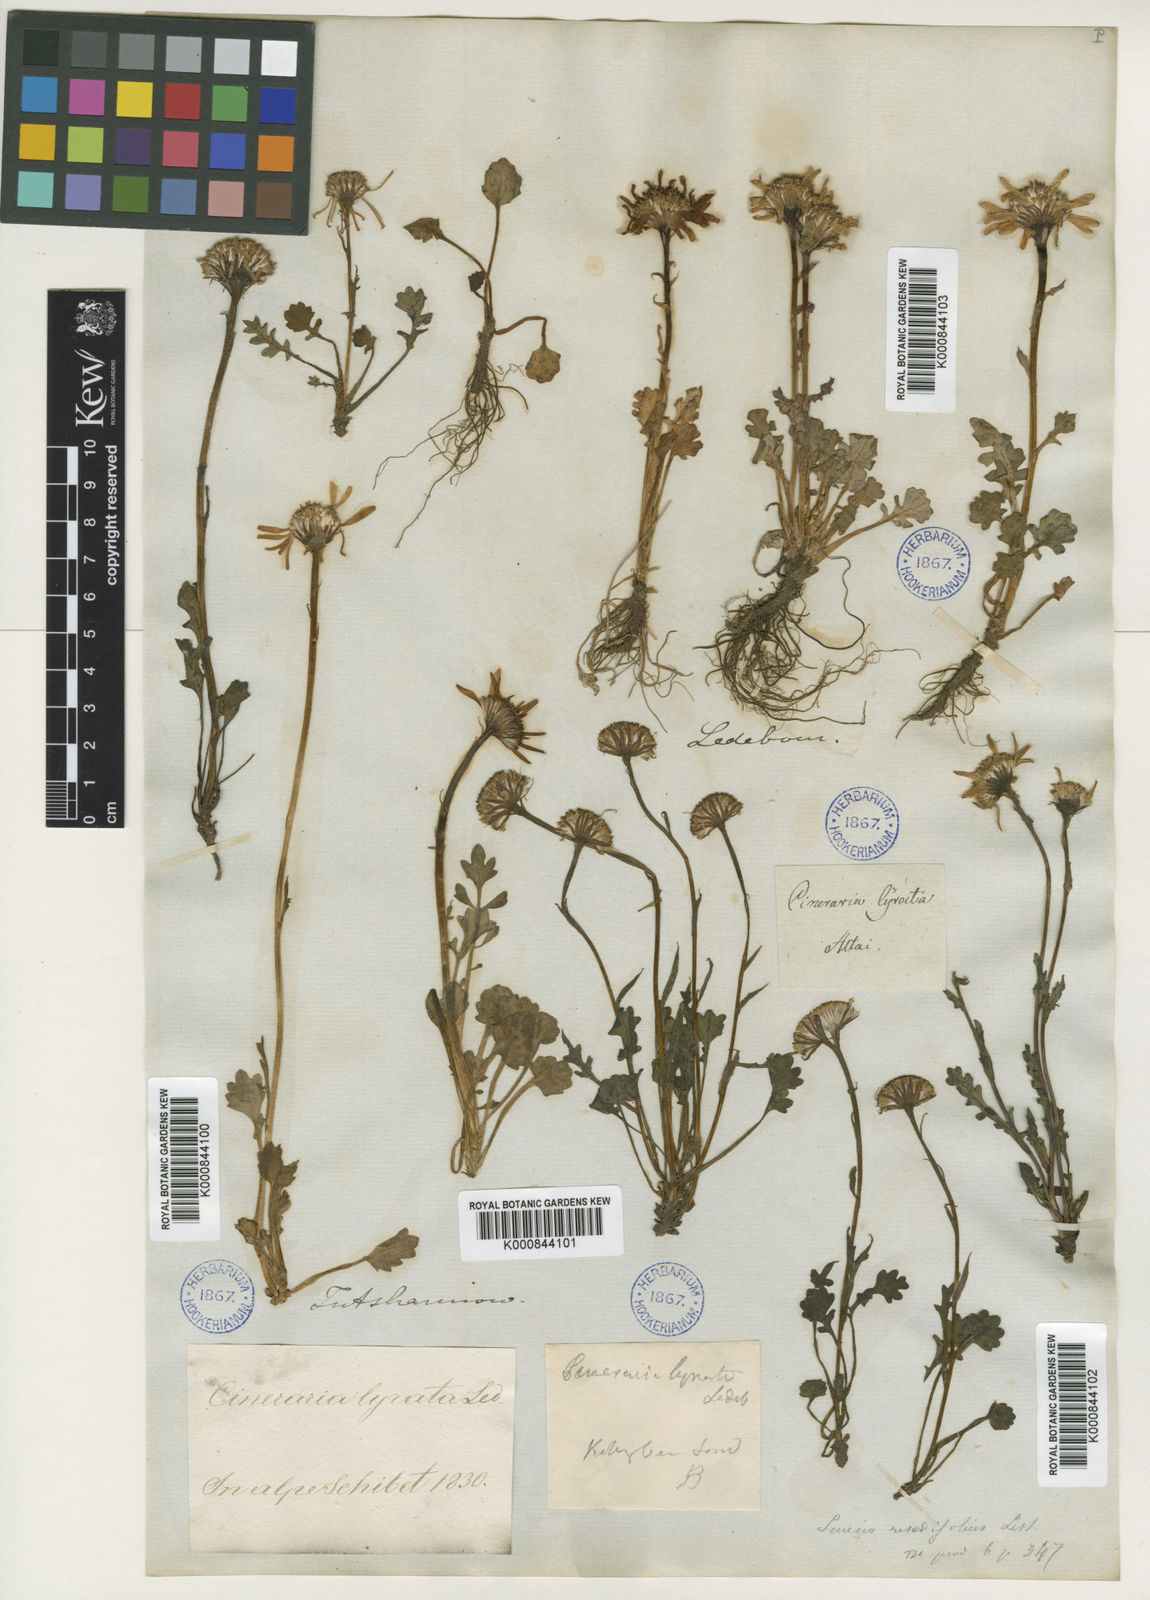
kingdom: Plantae
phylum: Tracheophyta
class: Magnoliopsida
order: Asterales
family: Asteraceae
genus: Packera
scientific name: Packera
